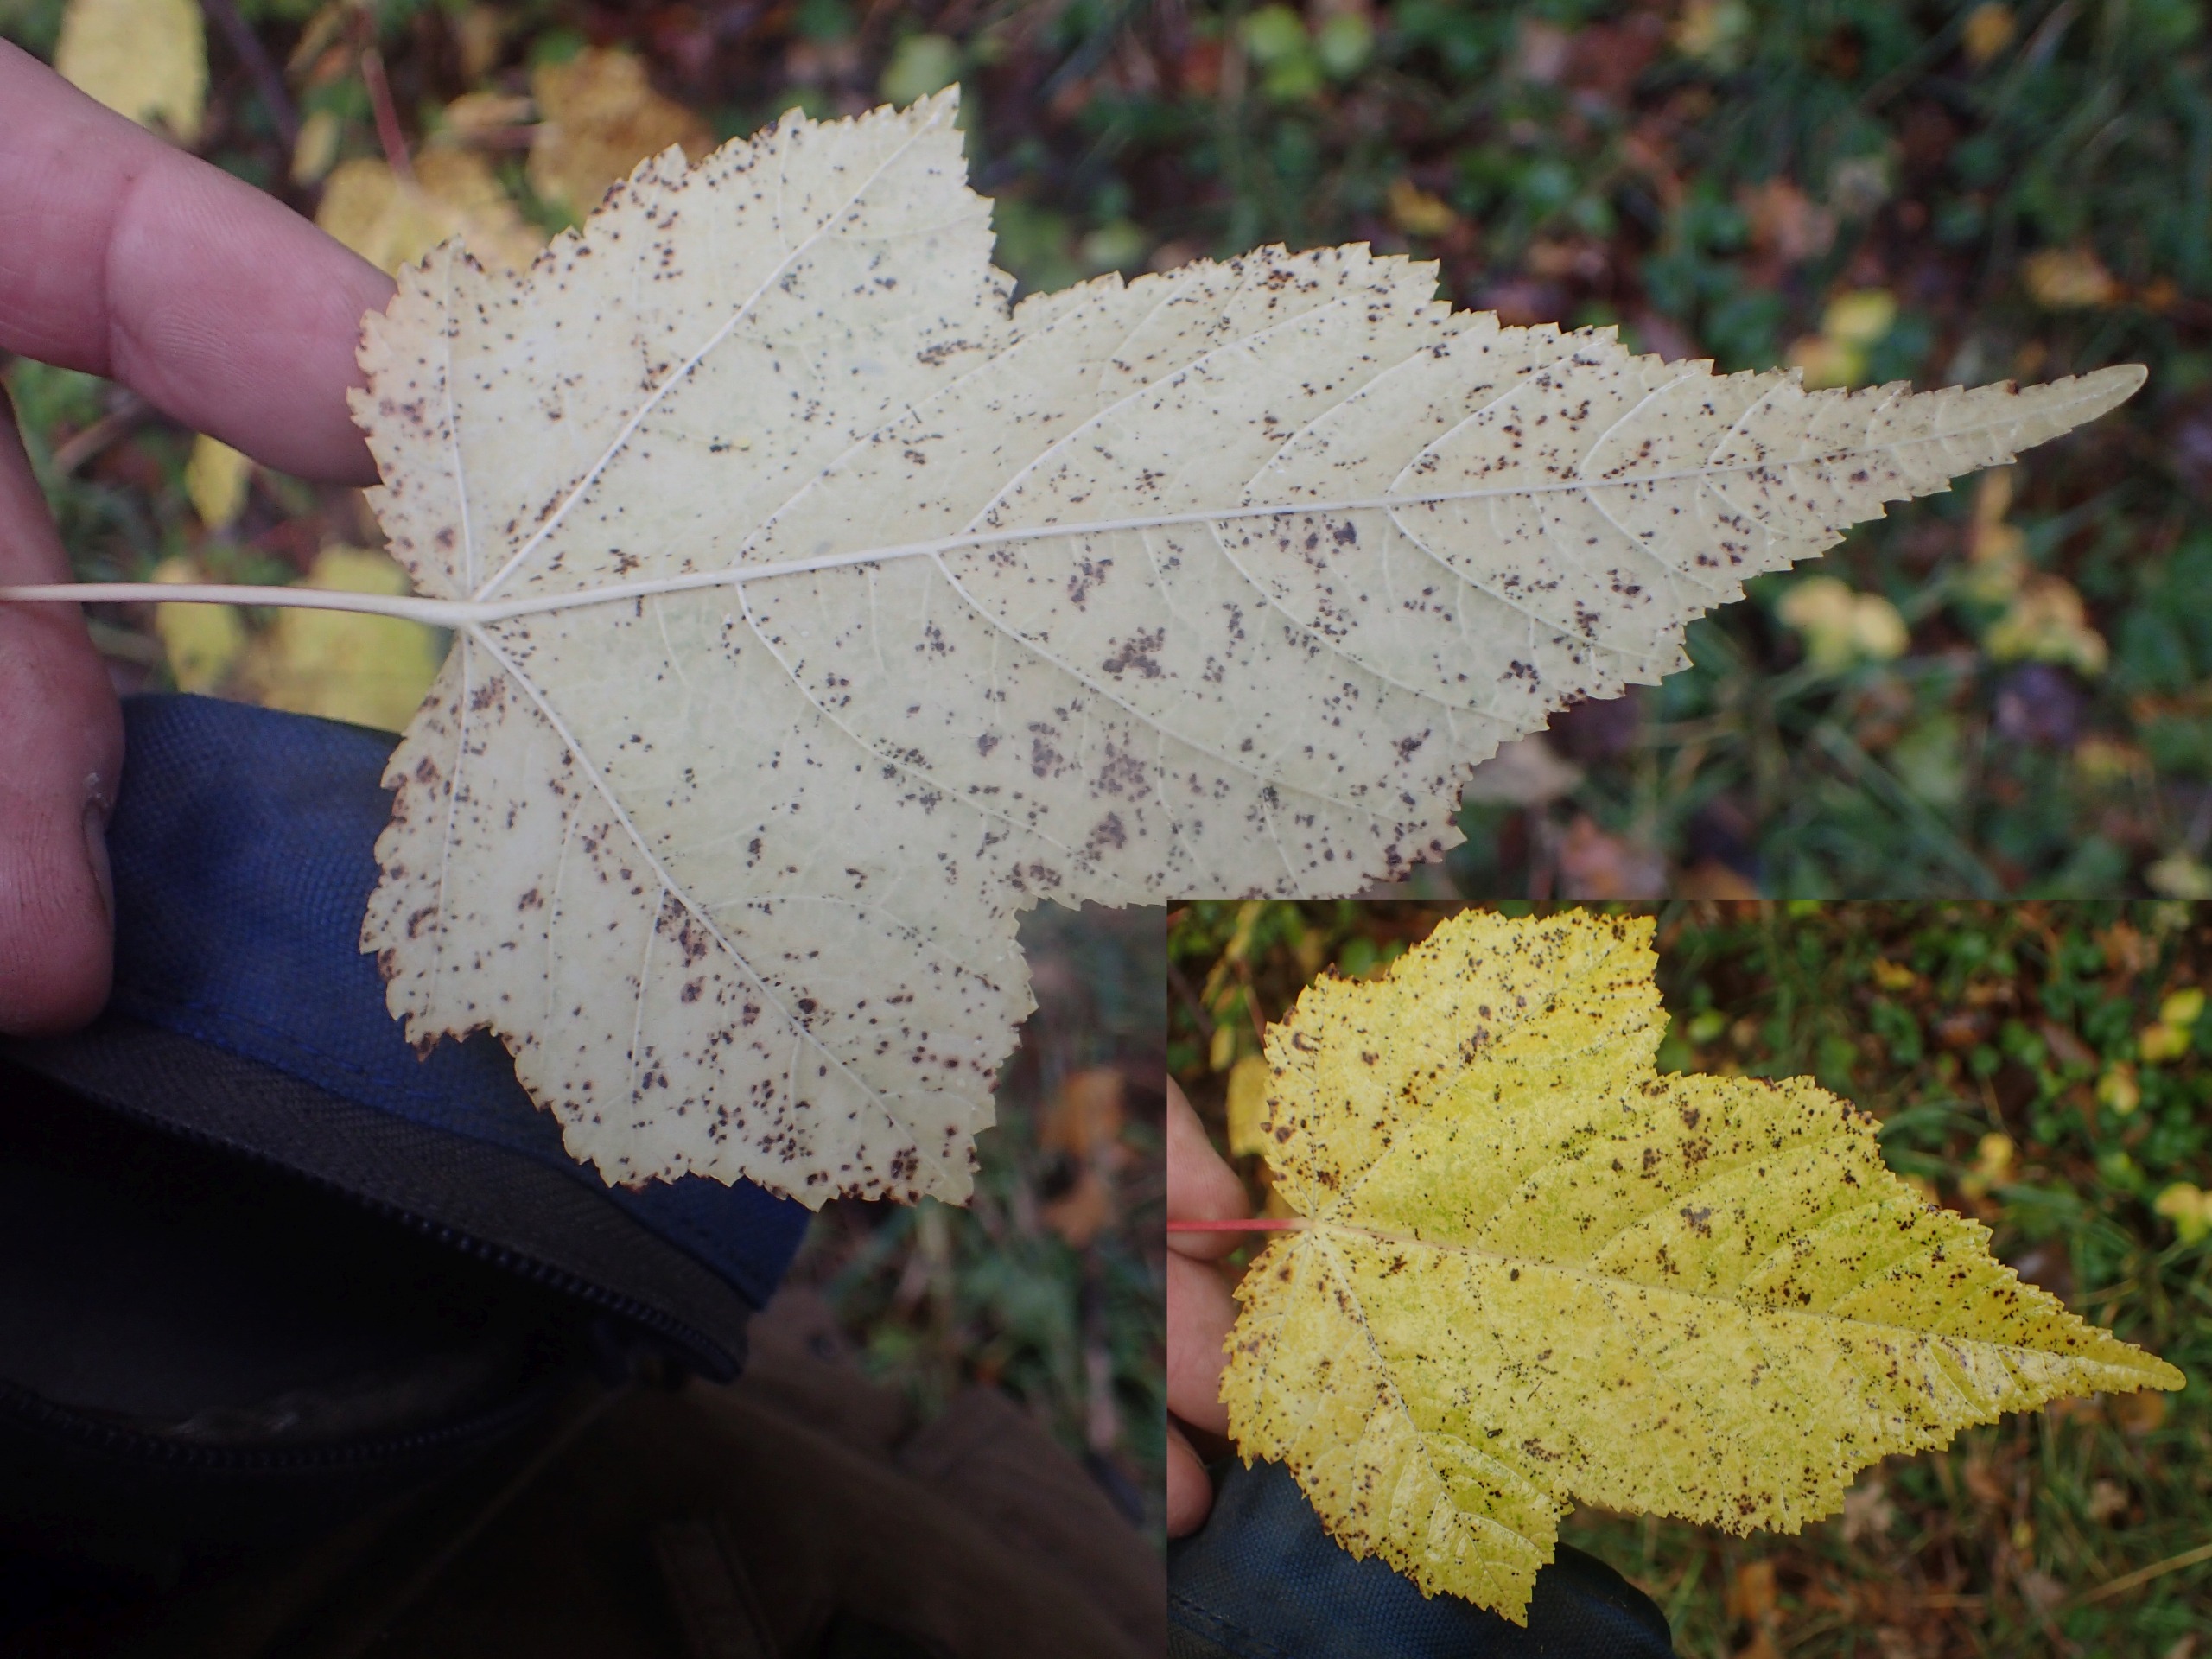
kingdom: Plantae
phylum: Tracheophyta
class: Magnoliopsida
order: Sapindales
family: Sapindaceae
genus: Acer
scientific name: Acer tataricum
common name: Ild-løn
